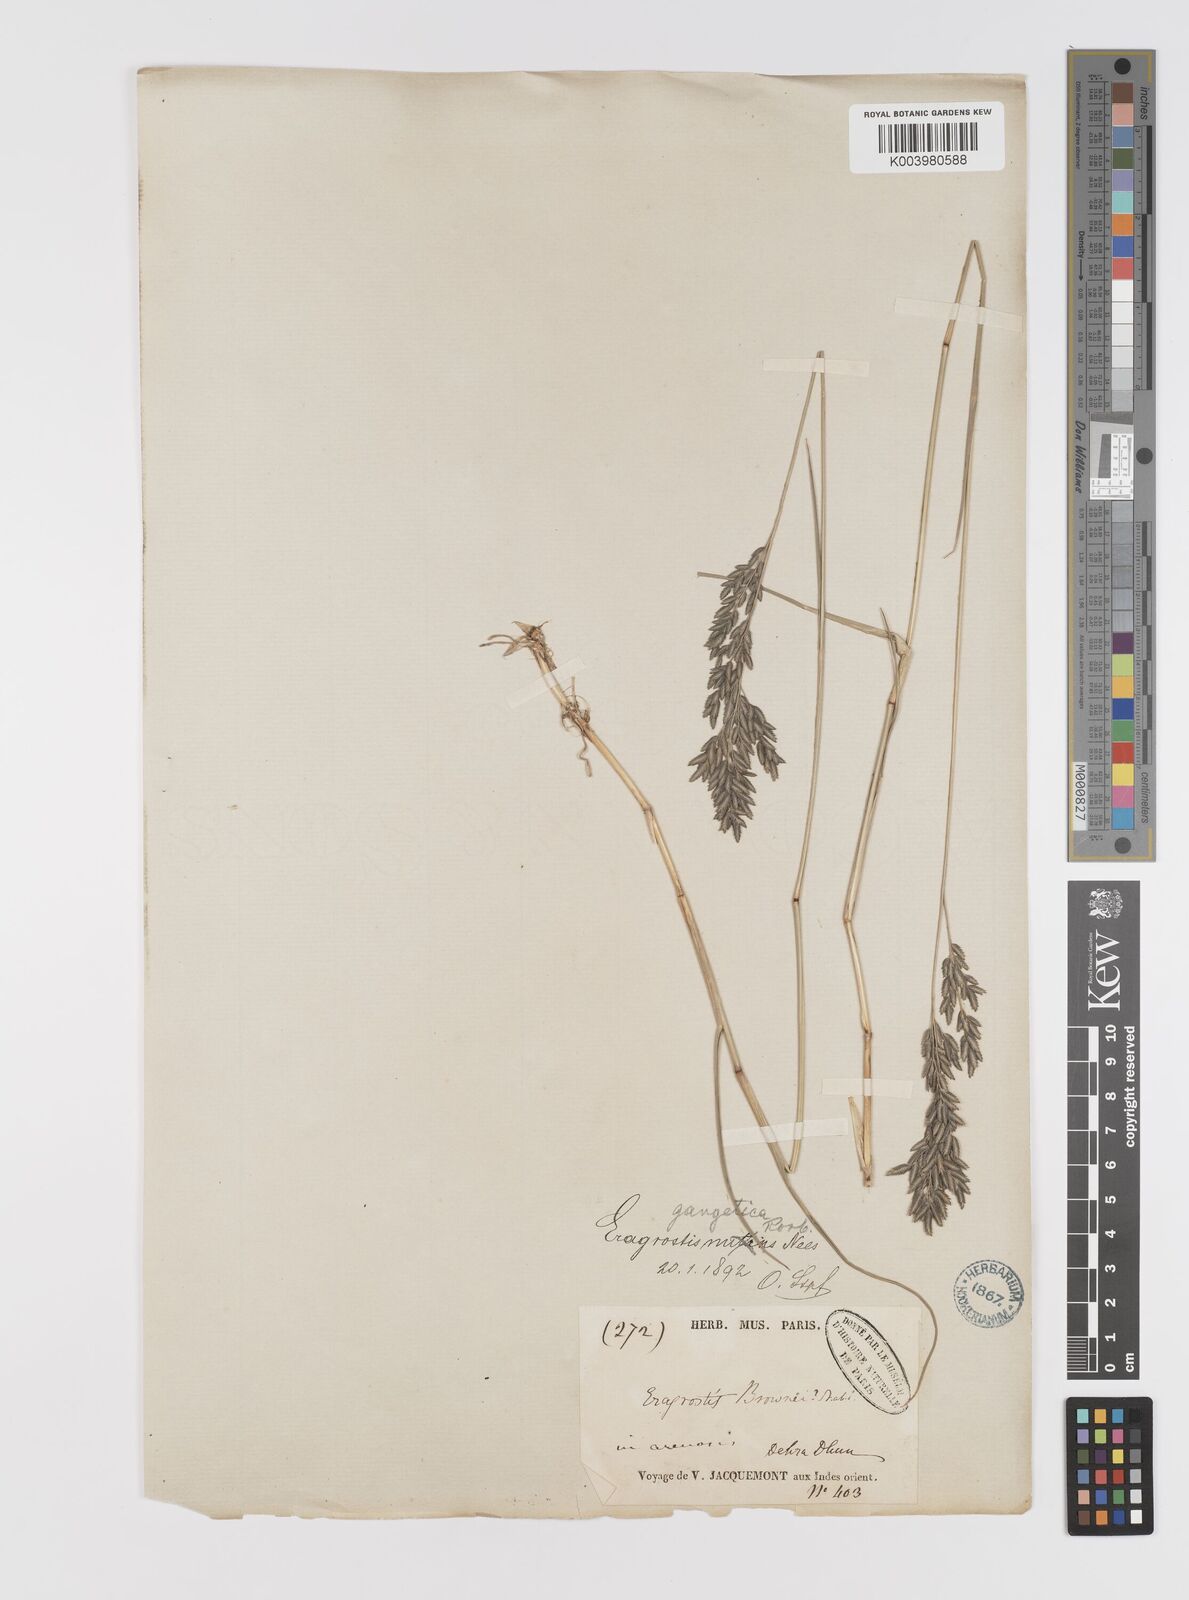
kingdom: Plantae
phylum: Tracheophyta
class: Liliopsida
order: Poales
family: Poaceae
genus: Eragrostis
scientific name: Eragrostis atrovirens
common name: Thalia lovegrass
